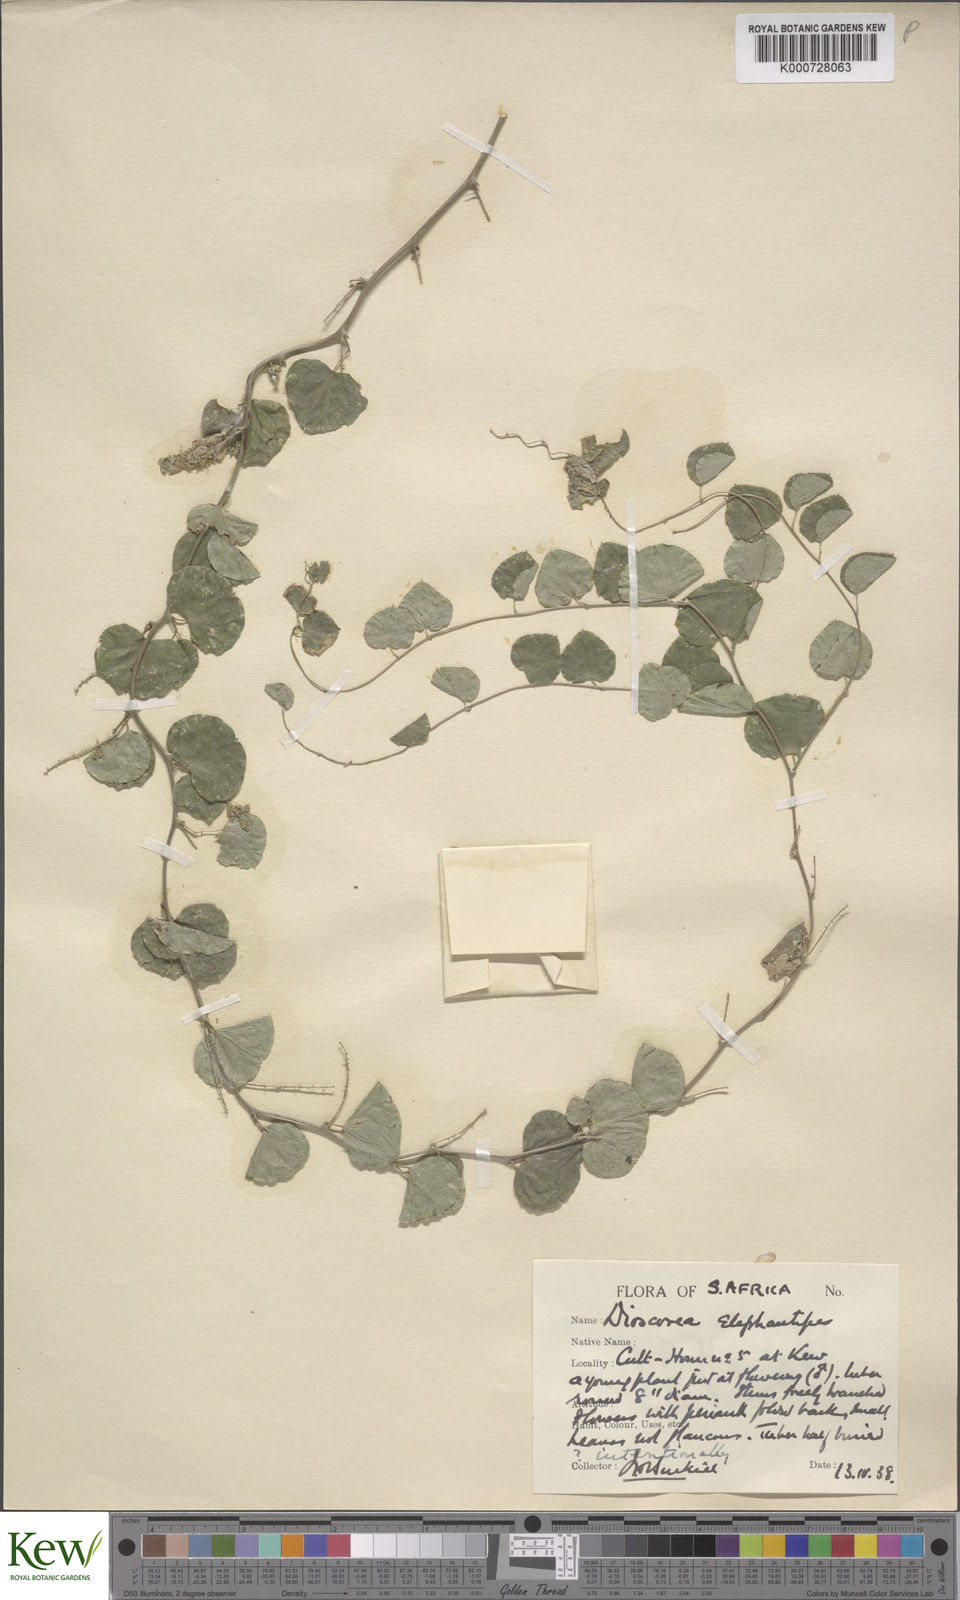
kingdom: Plantae
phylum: Tracheophyta
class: Liliopsida
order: Dioscoreales
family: Dioscoreaceae
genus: Dioscorea
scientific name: Dioscorea
